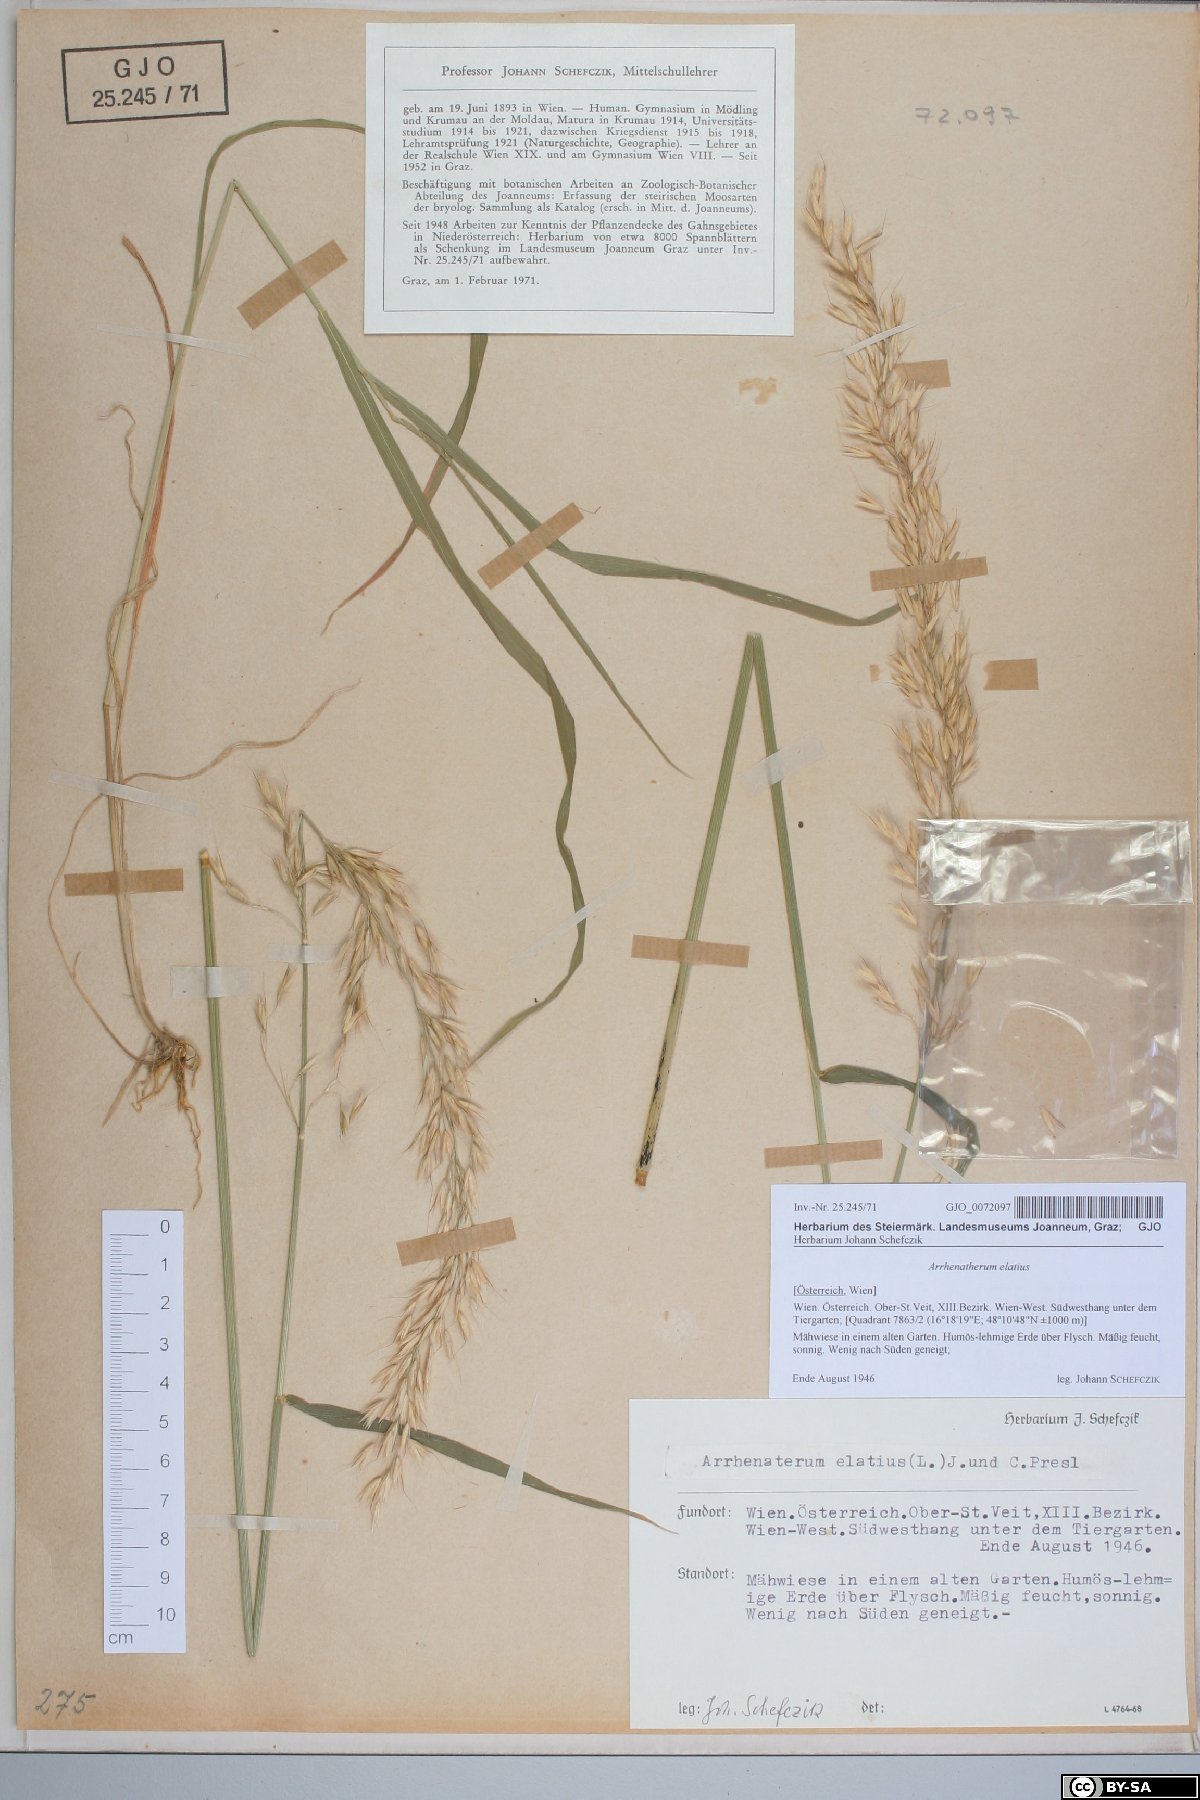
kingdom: Plantae
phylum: Tracheophyta
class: Liliopsida
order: Poales
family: Poaceae
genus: Arrhenatherum
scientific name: Arrhenatherum elatius
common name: Tall oatgrass
